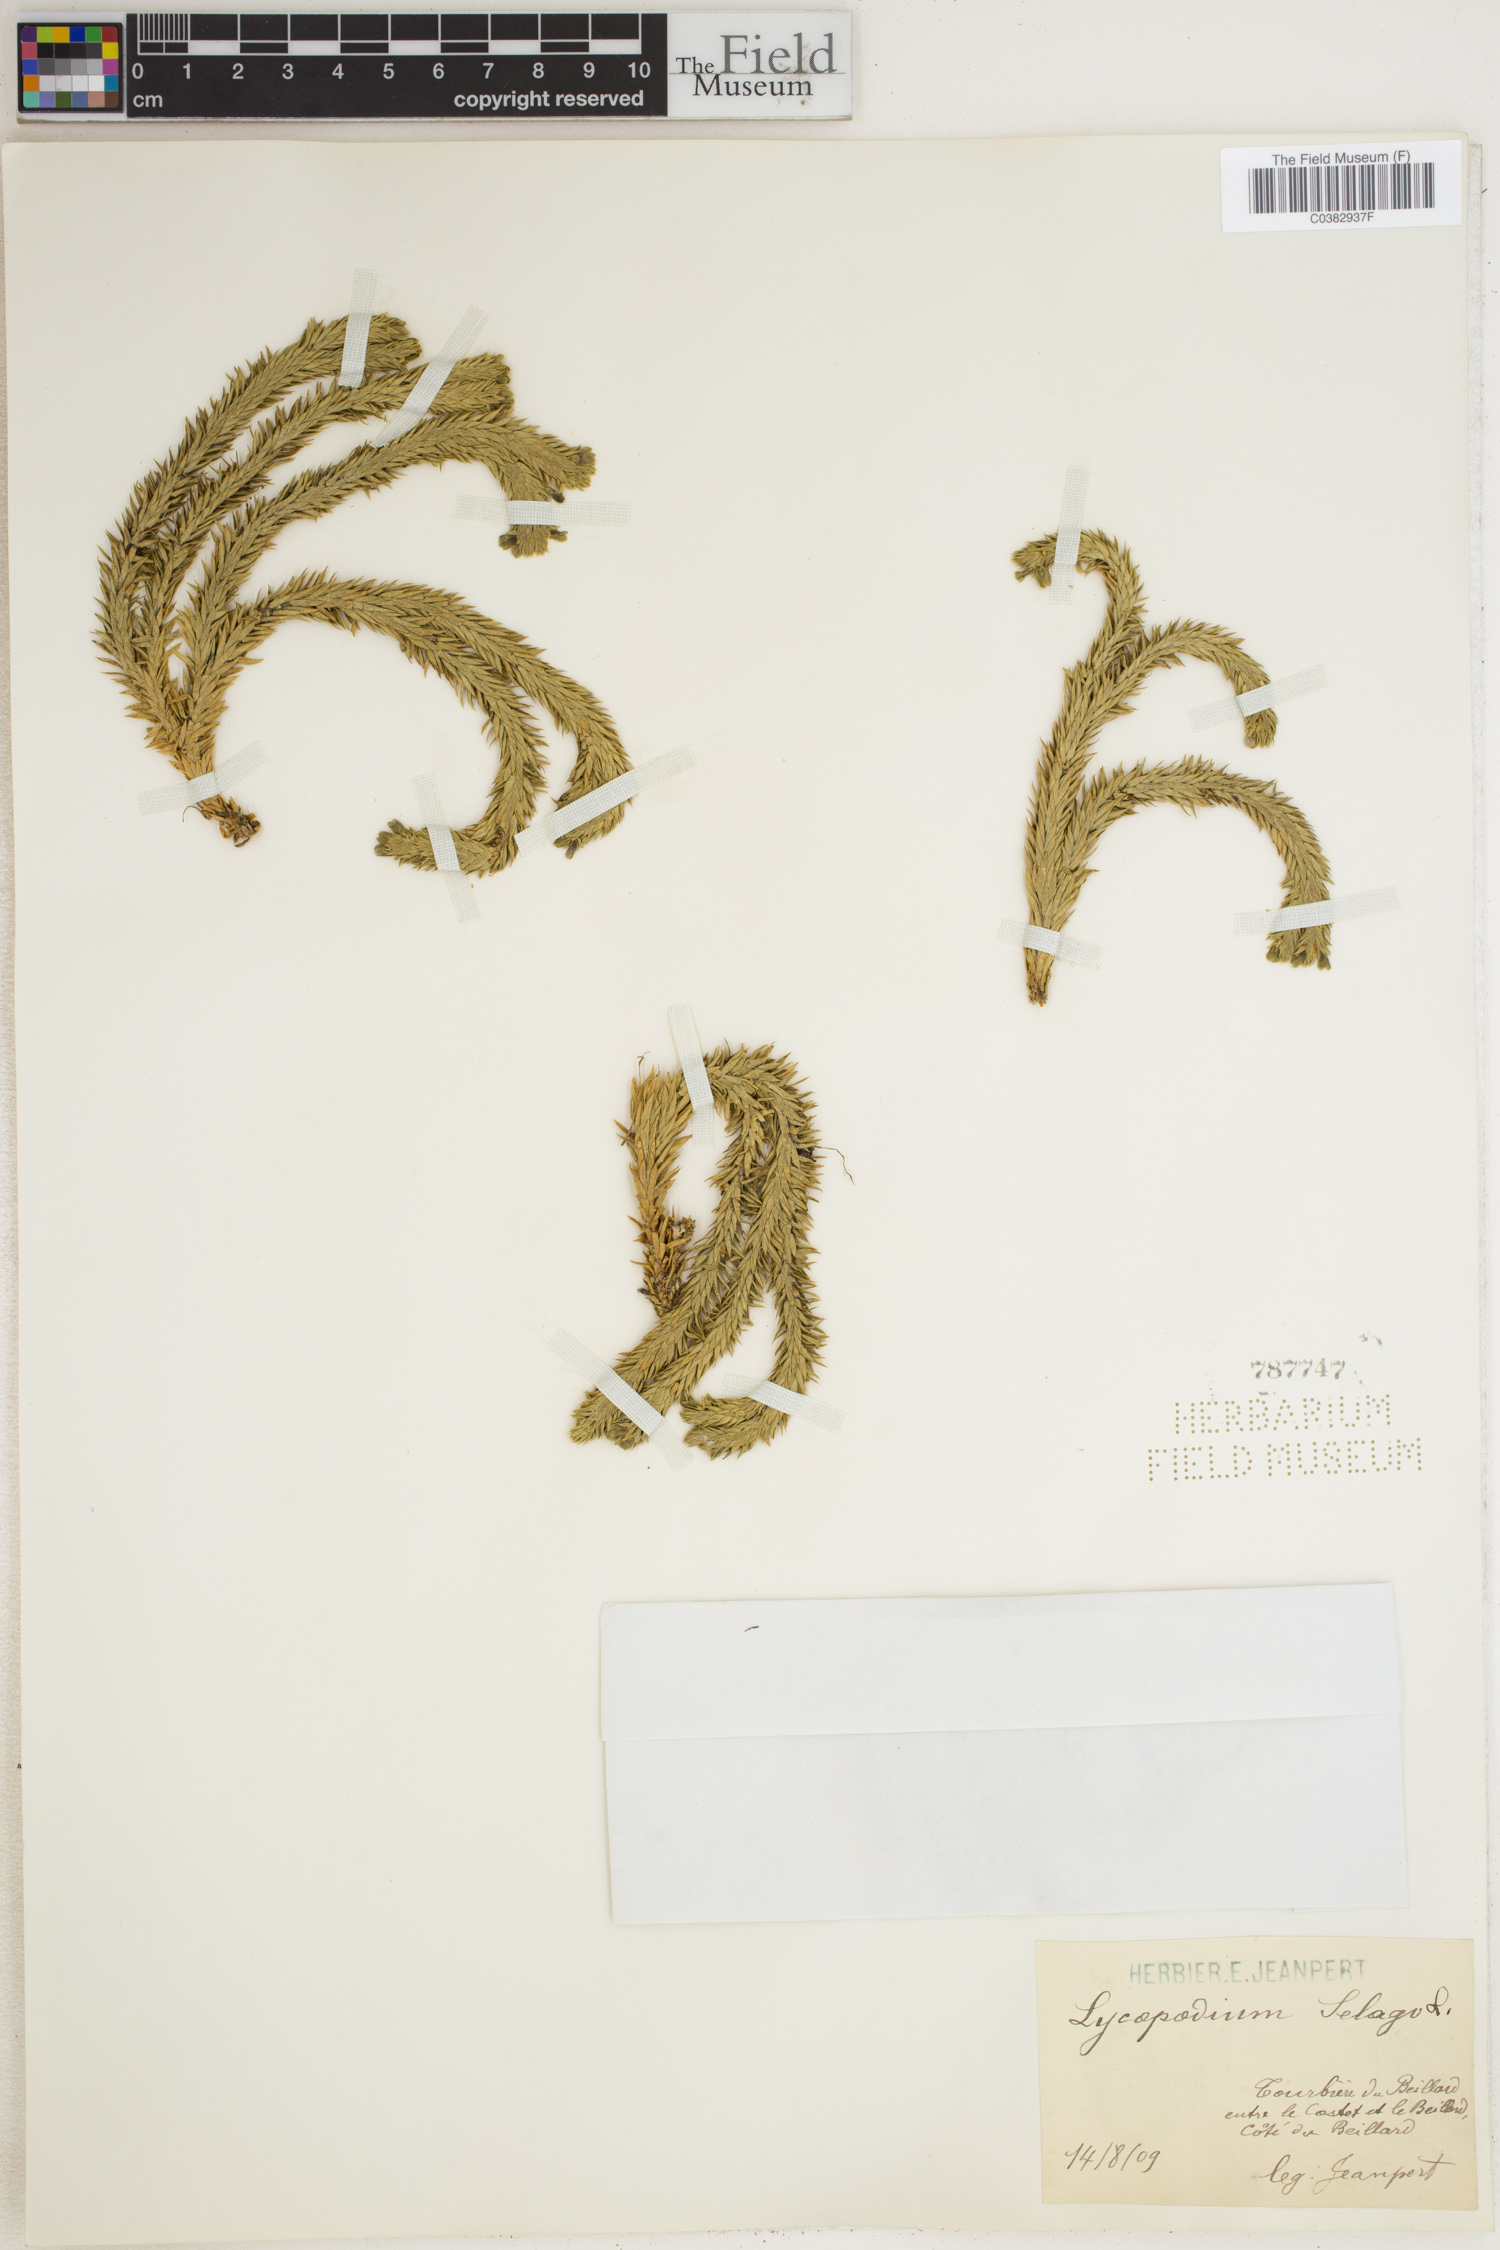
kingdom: Plantae
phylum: Tracheophyta
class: Lycopodiopsida
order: Lycopodiales
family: Lycopodiaceae
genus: Huperzia
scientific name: Huperzia selago
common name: Northern firmoss
